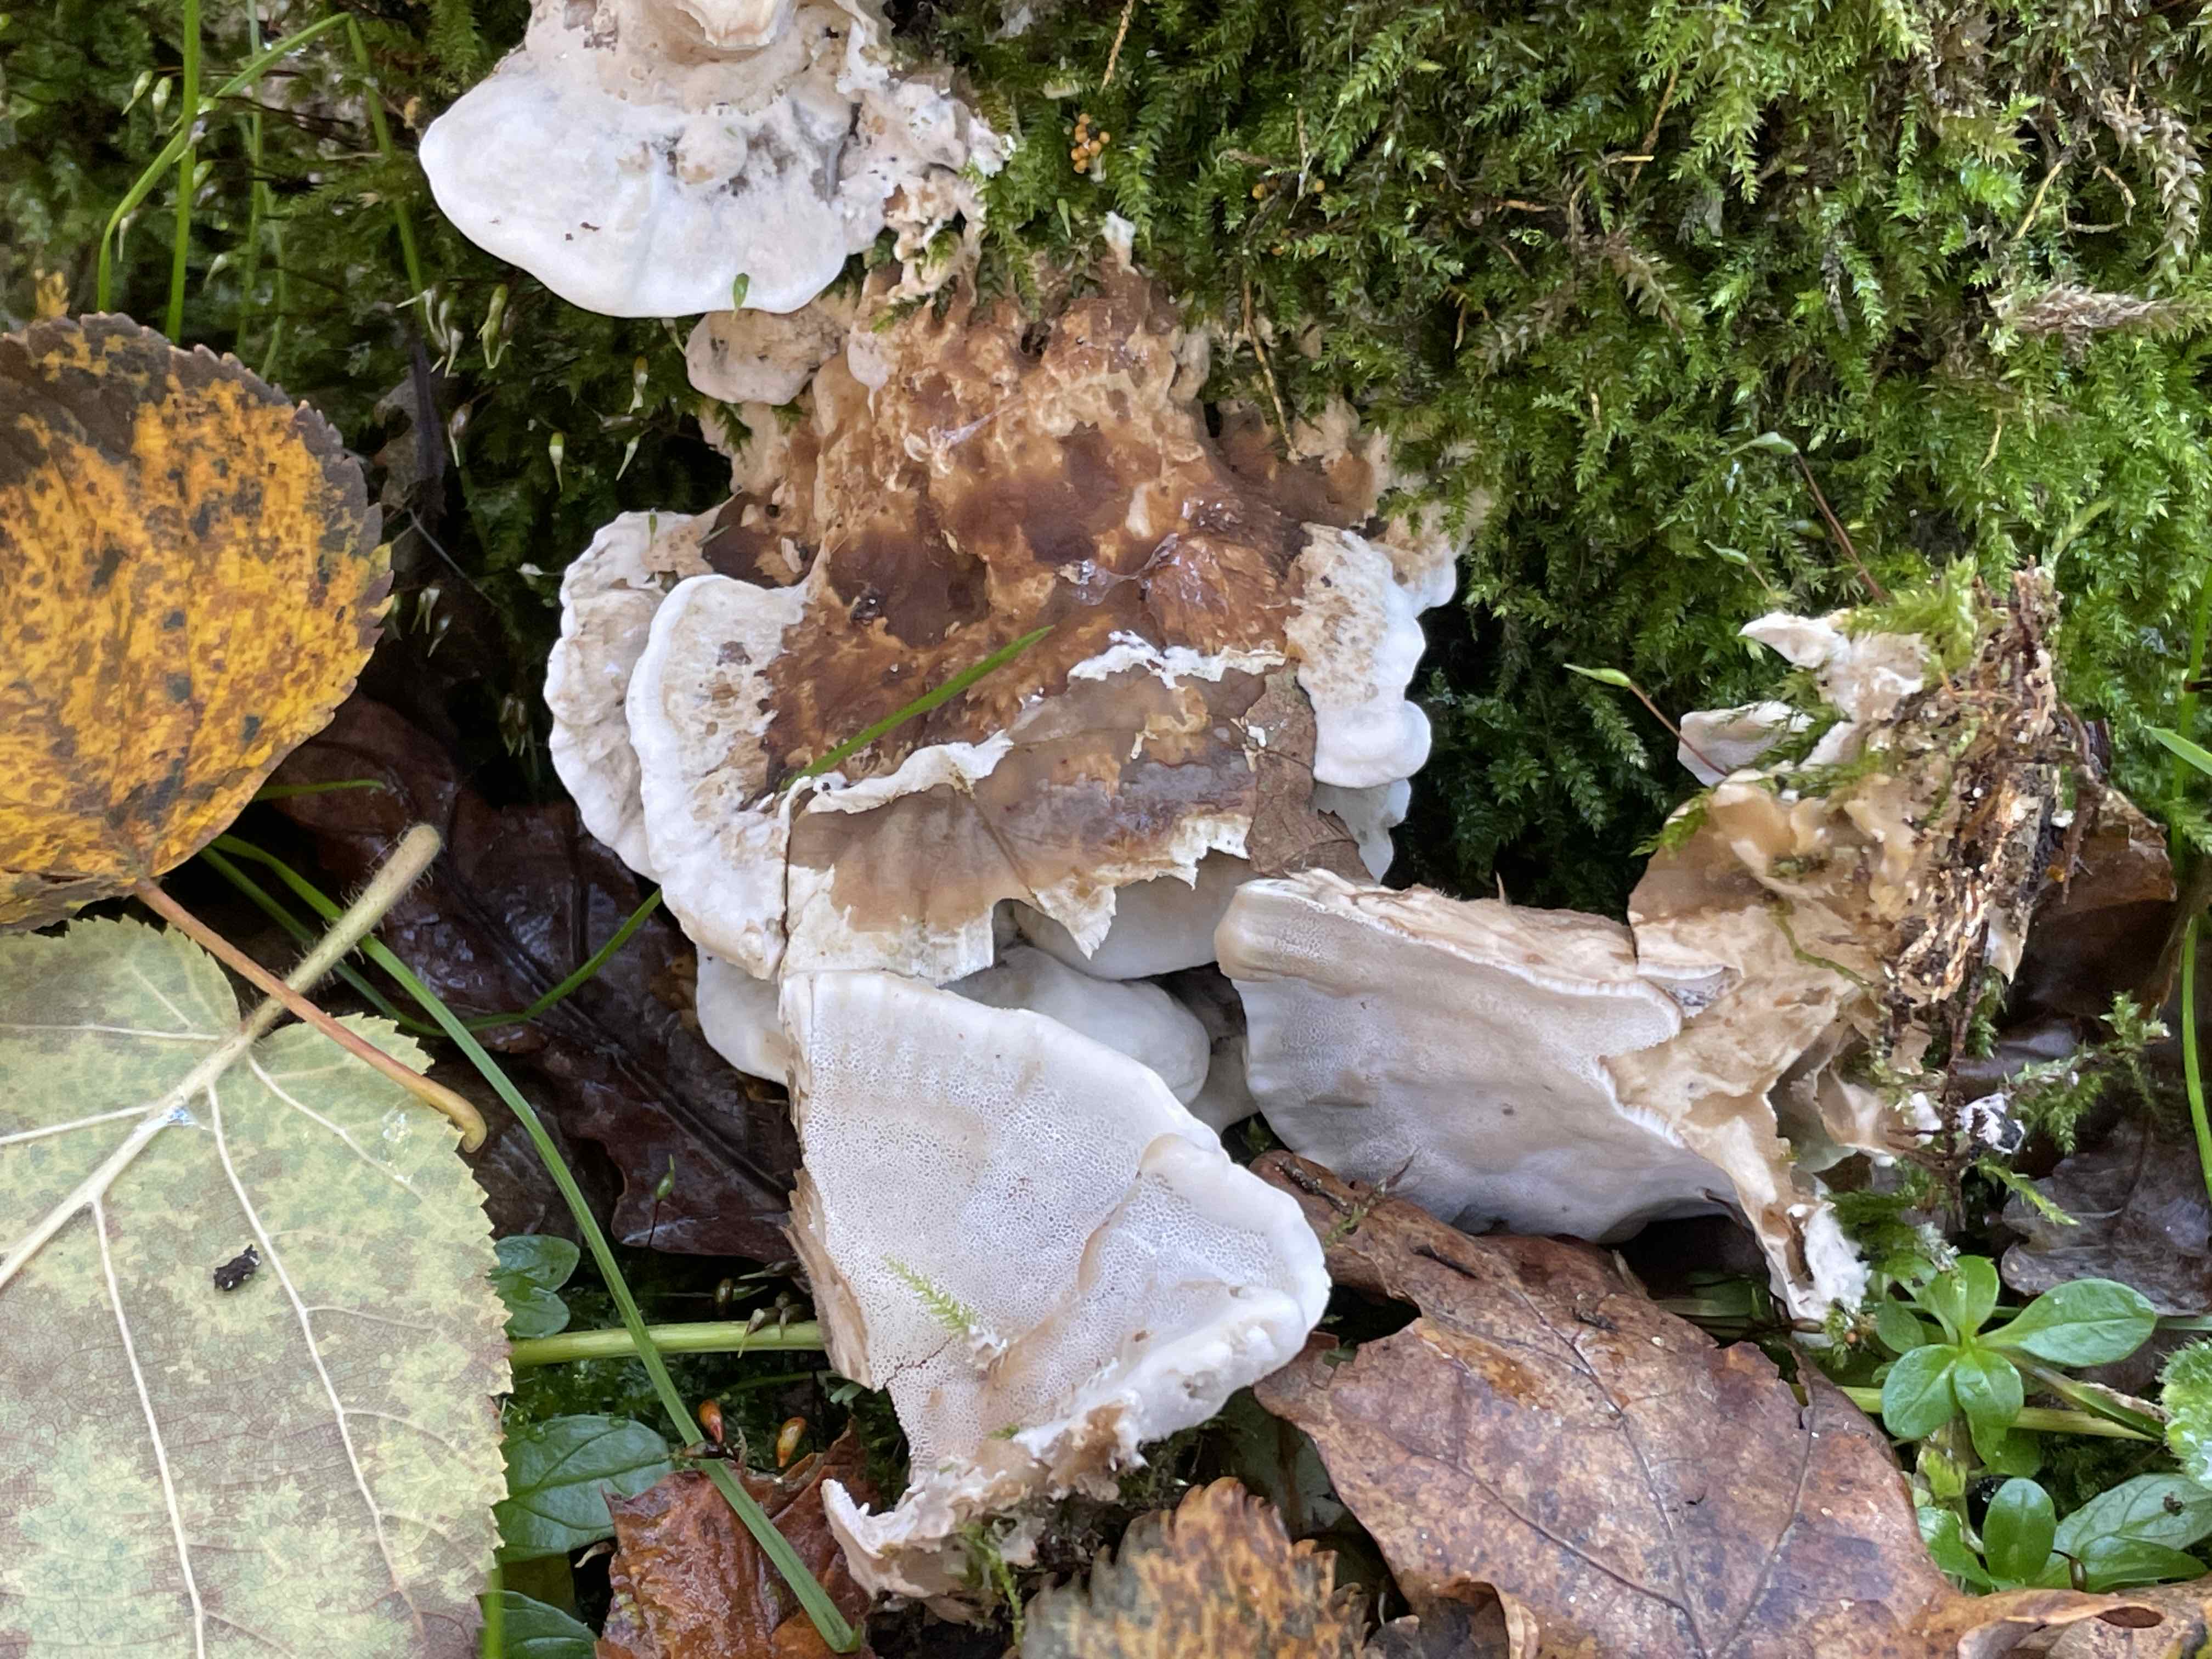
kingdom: Fungi
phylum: Basidiomycota
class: Agaricomycetes
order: Polyporales
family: Phanerochaetaceae
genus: Bjerkandera
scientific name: Bjerkandera fumosa
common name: grågul sodporesvamp
